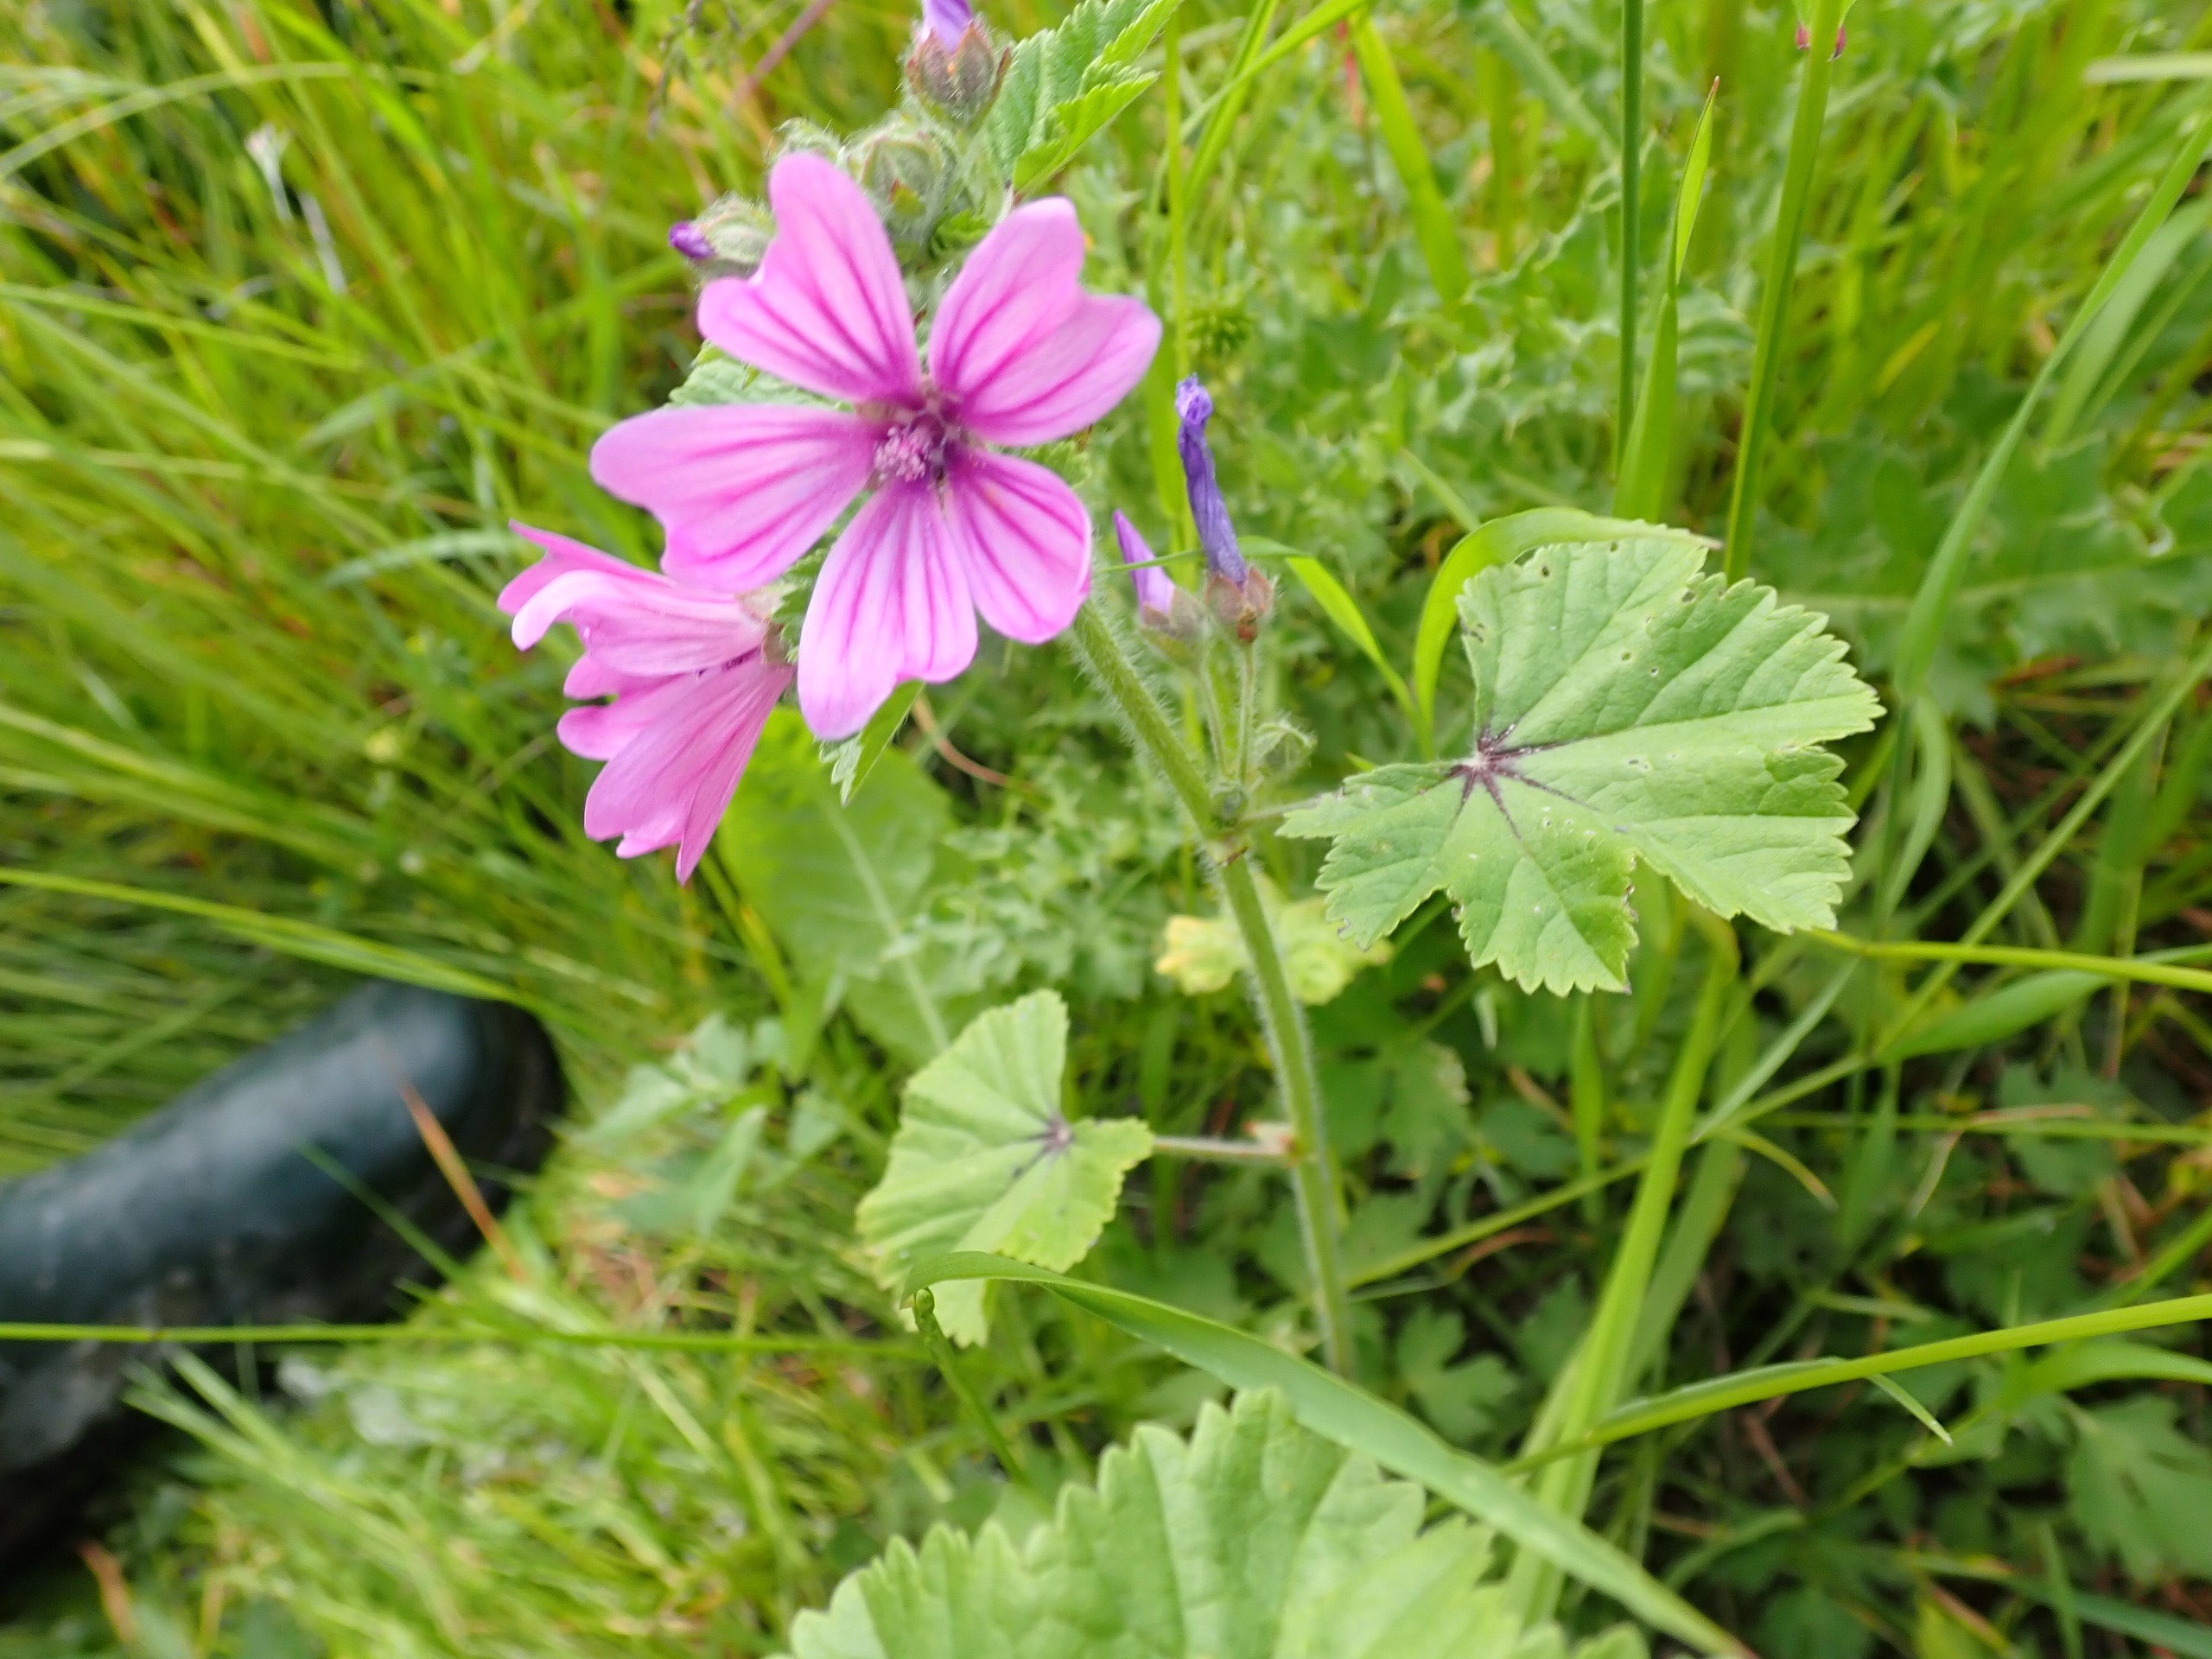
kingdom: Plantae
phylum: Tracheophyta
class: Magnoliopsida
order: Malvales
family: Malvaceae
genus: Malva
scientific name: Malva sylvestris
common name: Almindelig katost
